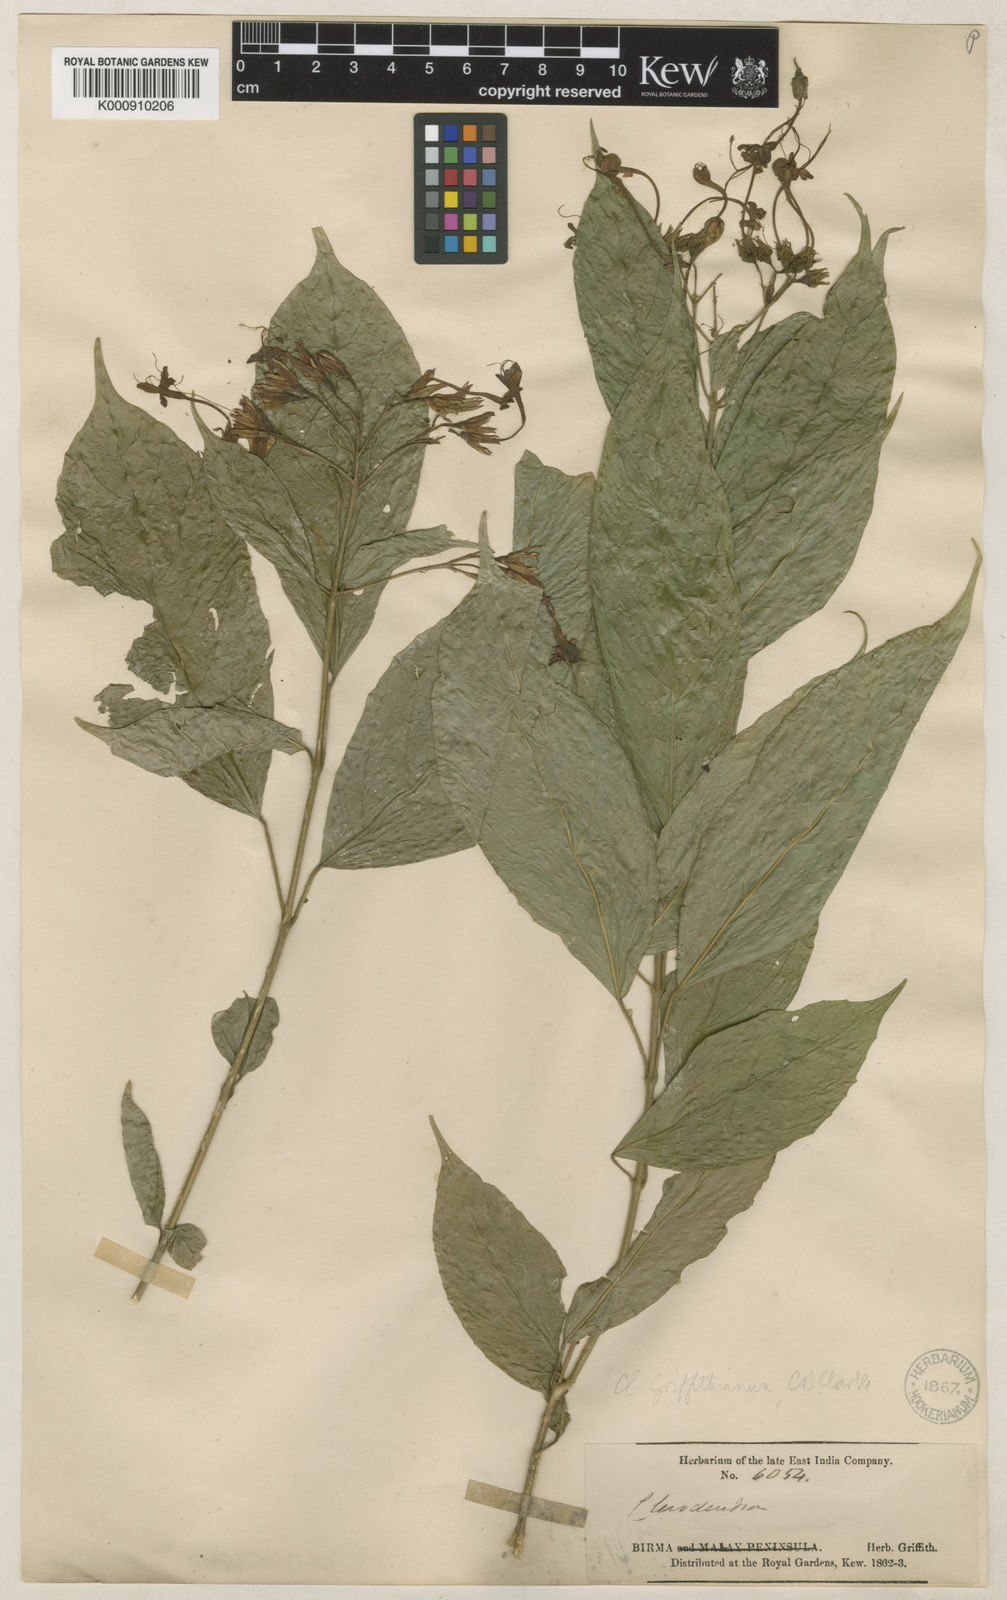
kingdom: Plantae
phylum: Tracheophyta
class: Magnoliopsida
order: Lamiales
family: Lamiaceae
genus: Clerodendrum
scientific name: Clerodendrum griffithianum
